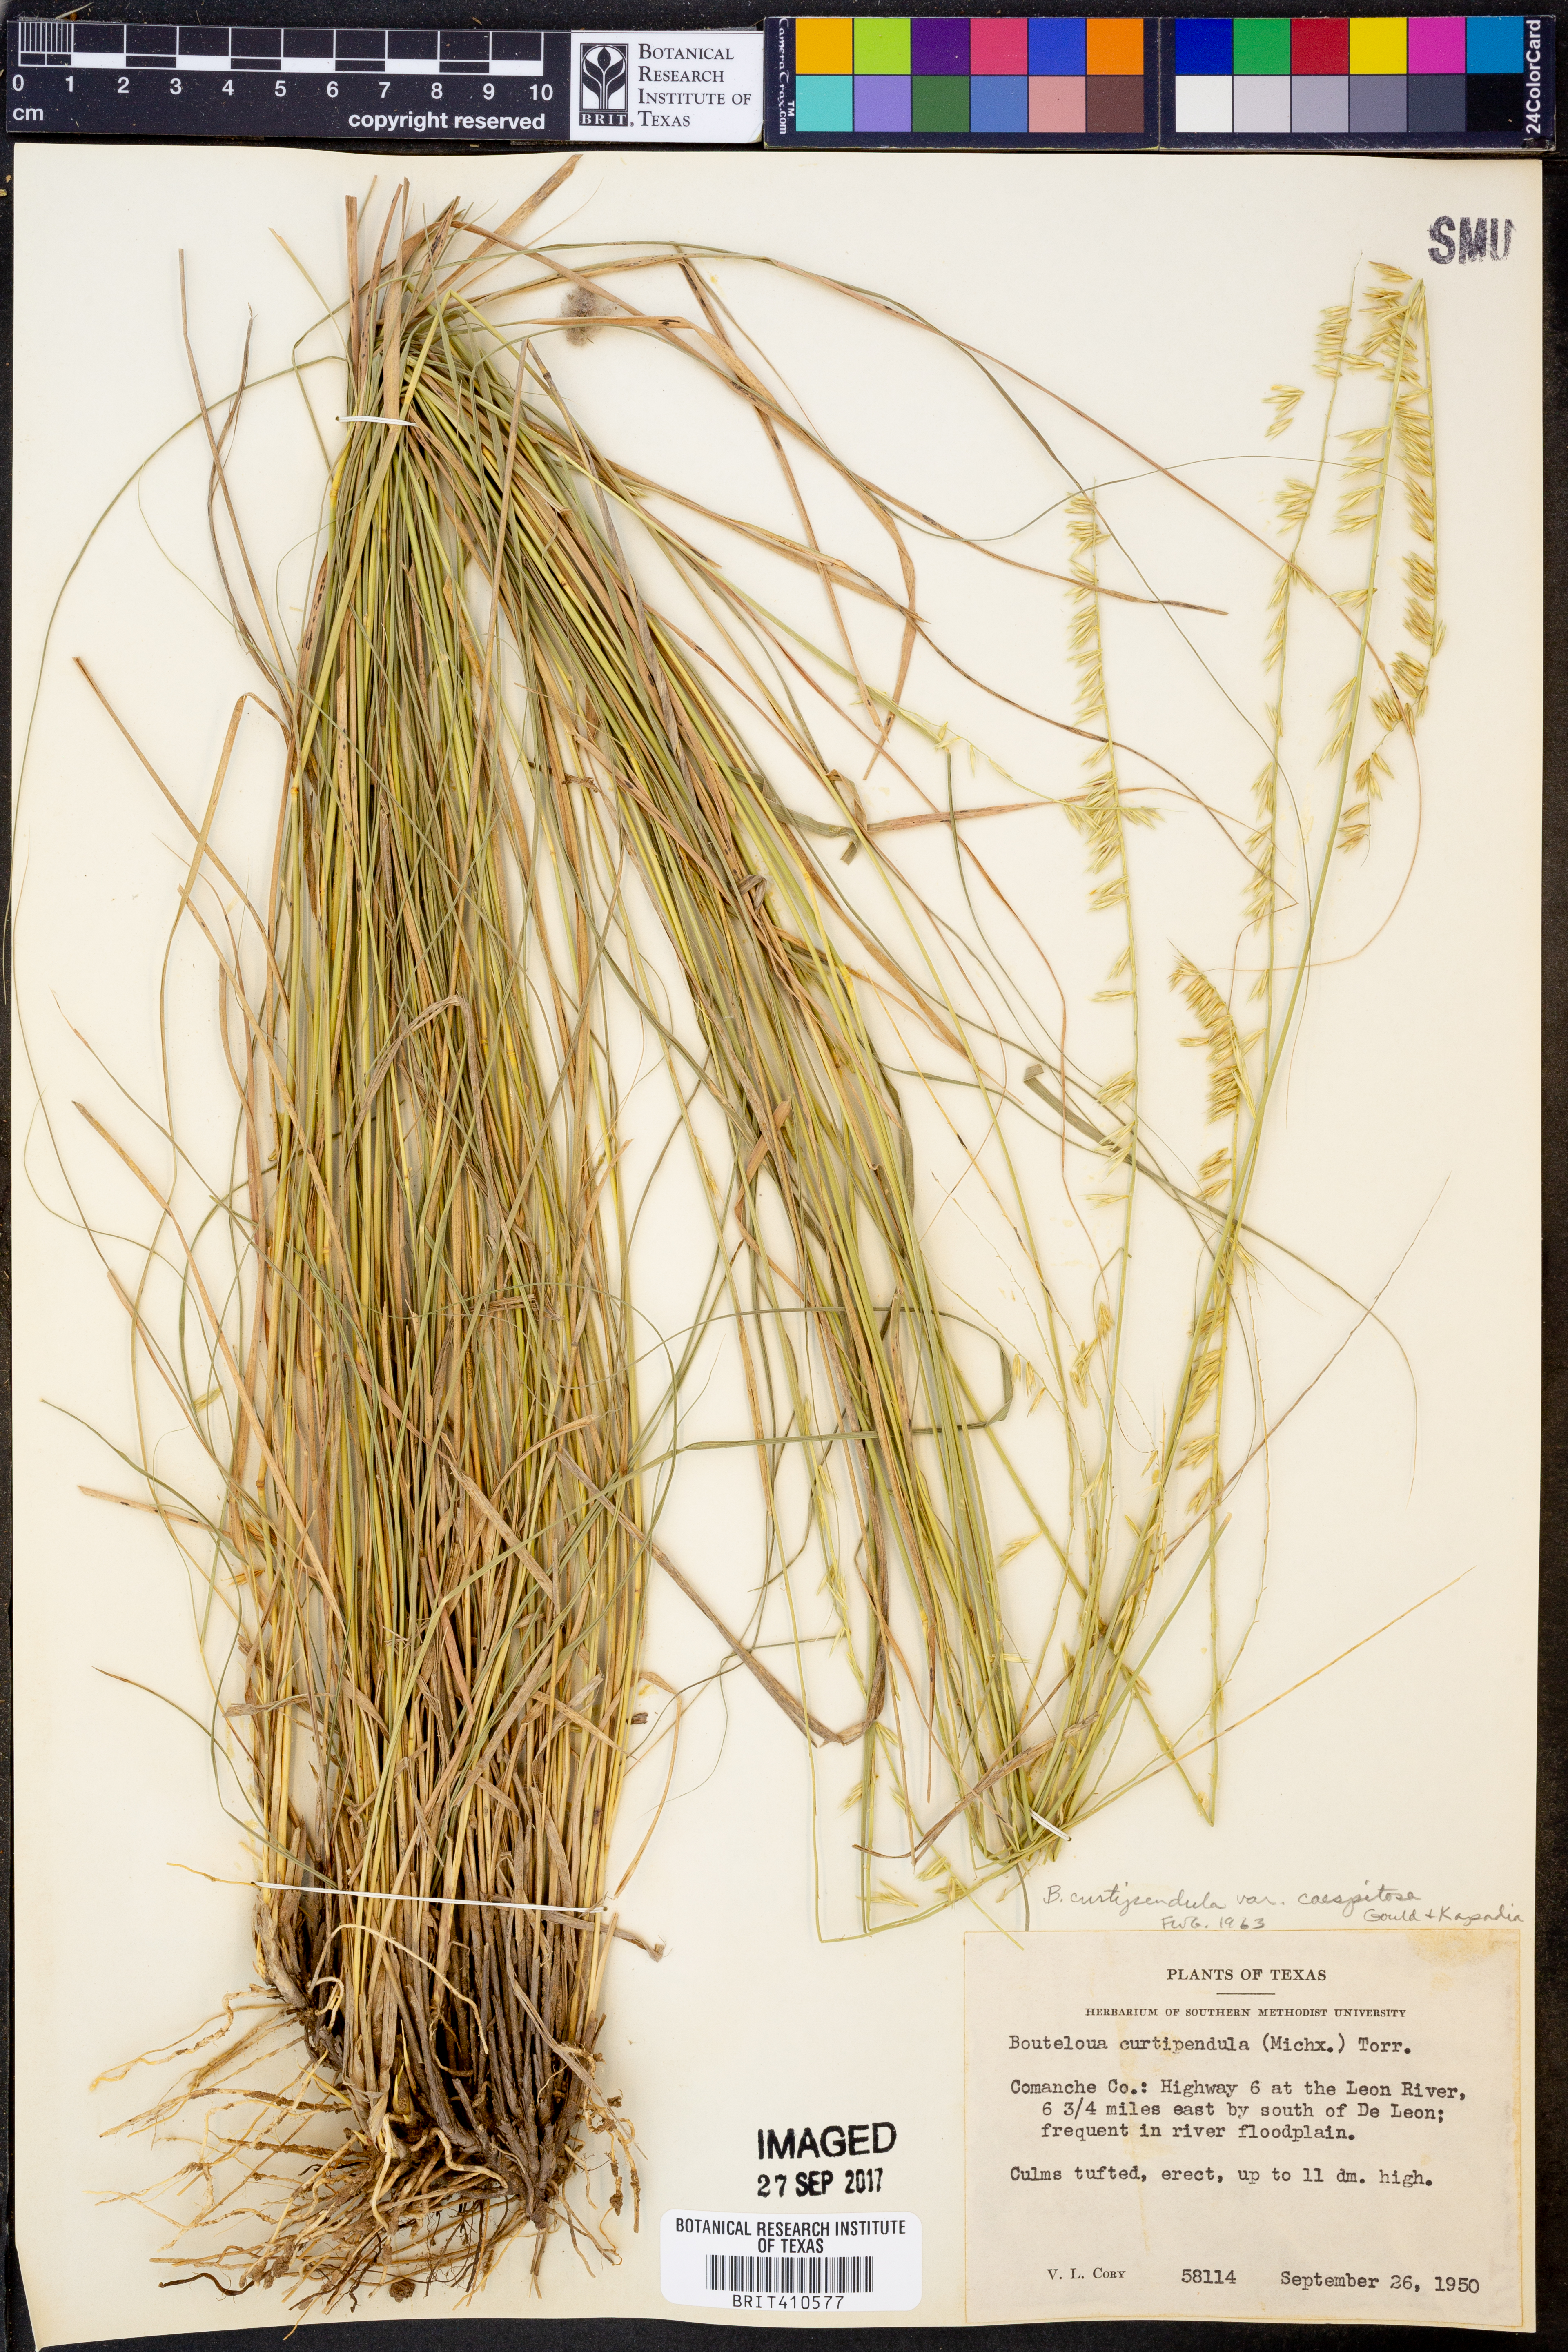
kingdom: Plantae
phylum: Tracheophyta
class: Liliopsida
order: Poales
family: Poaceae
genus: Bouteloua
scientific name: Bouteloua curtipendula
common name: Side-oats grama
